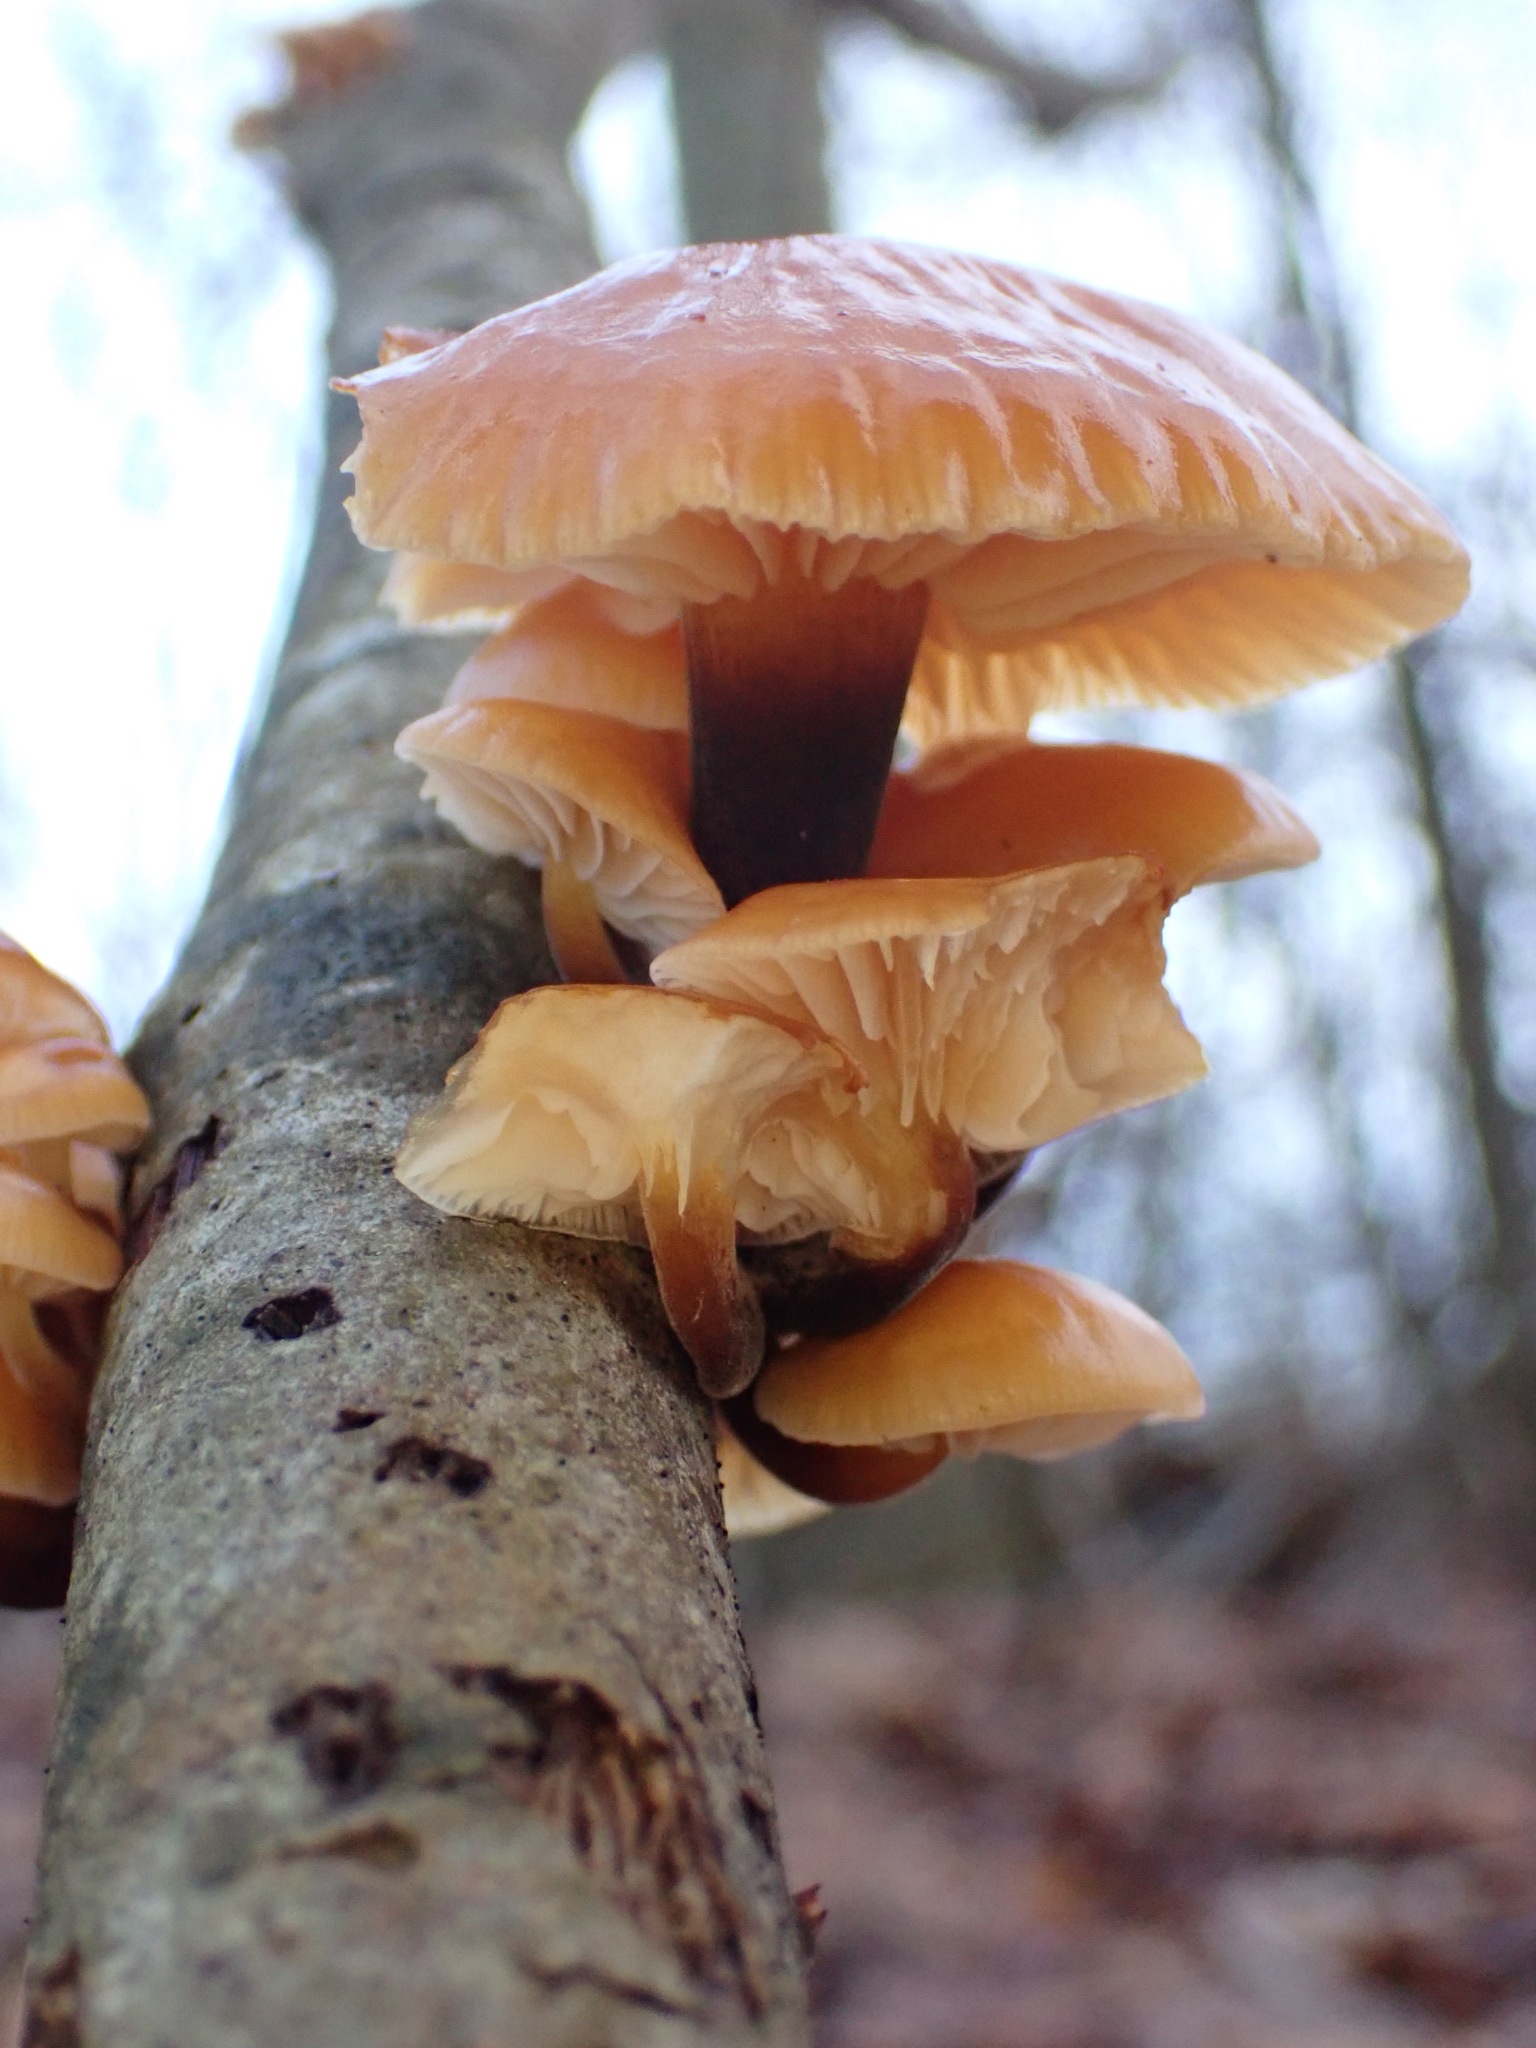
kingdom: Fungi
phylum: Basidiomycota
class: Agaricomycetes
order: Agaricales
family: Physalacriaceae
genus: Flammulina
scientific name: Flammulina velutipes
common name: gul fløjlsfod
